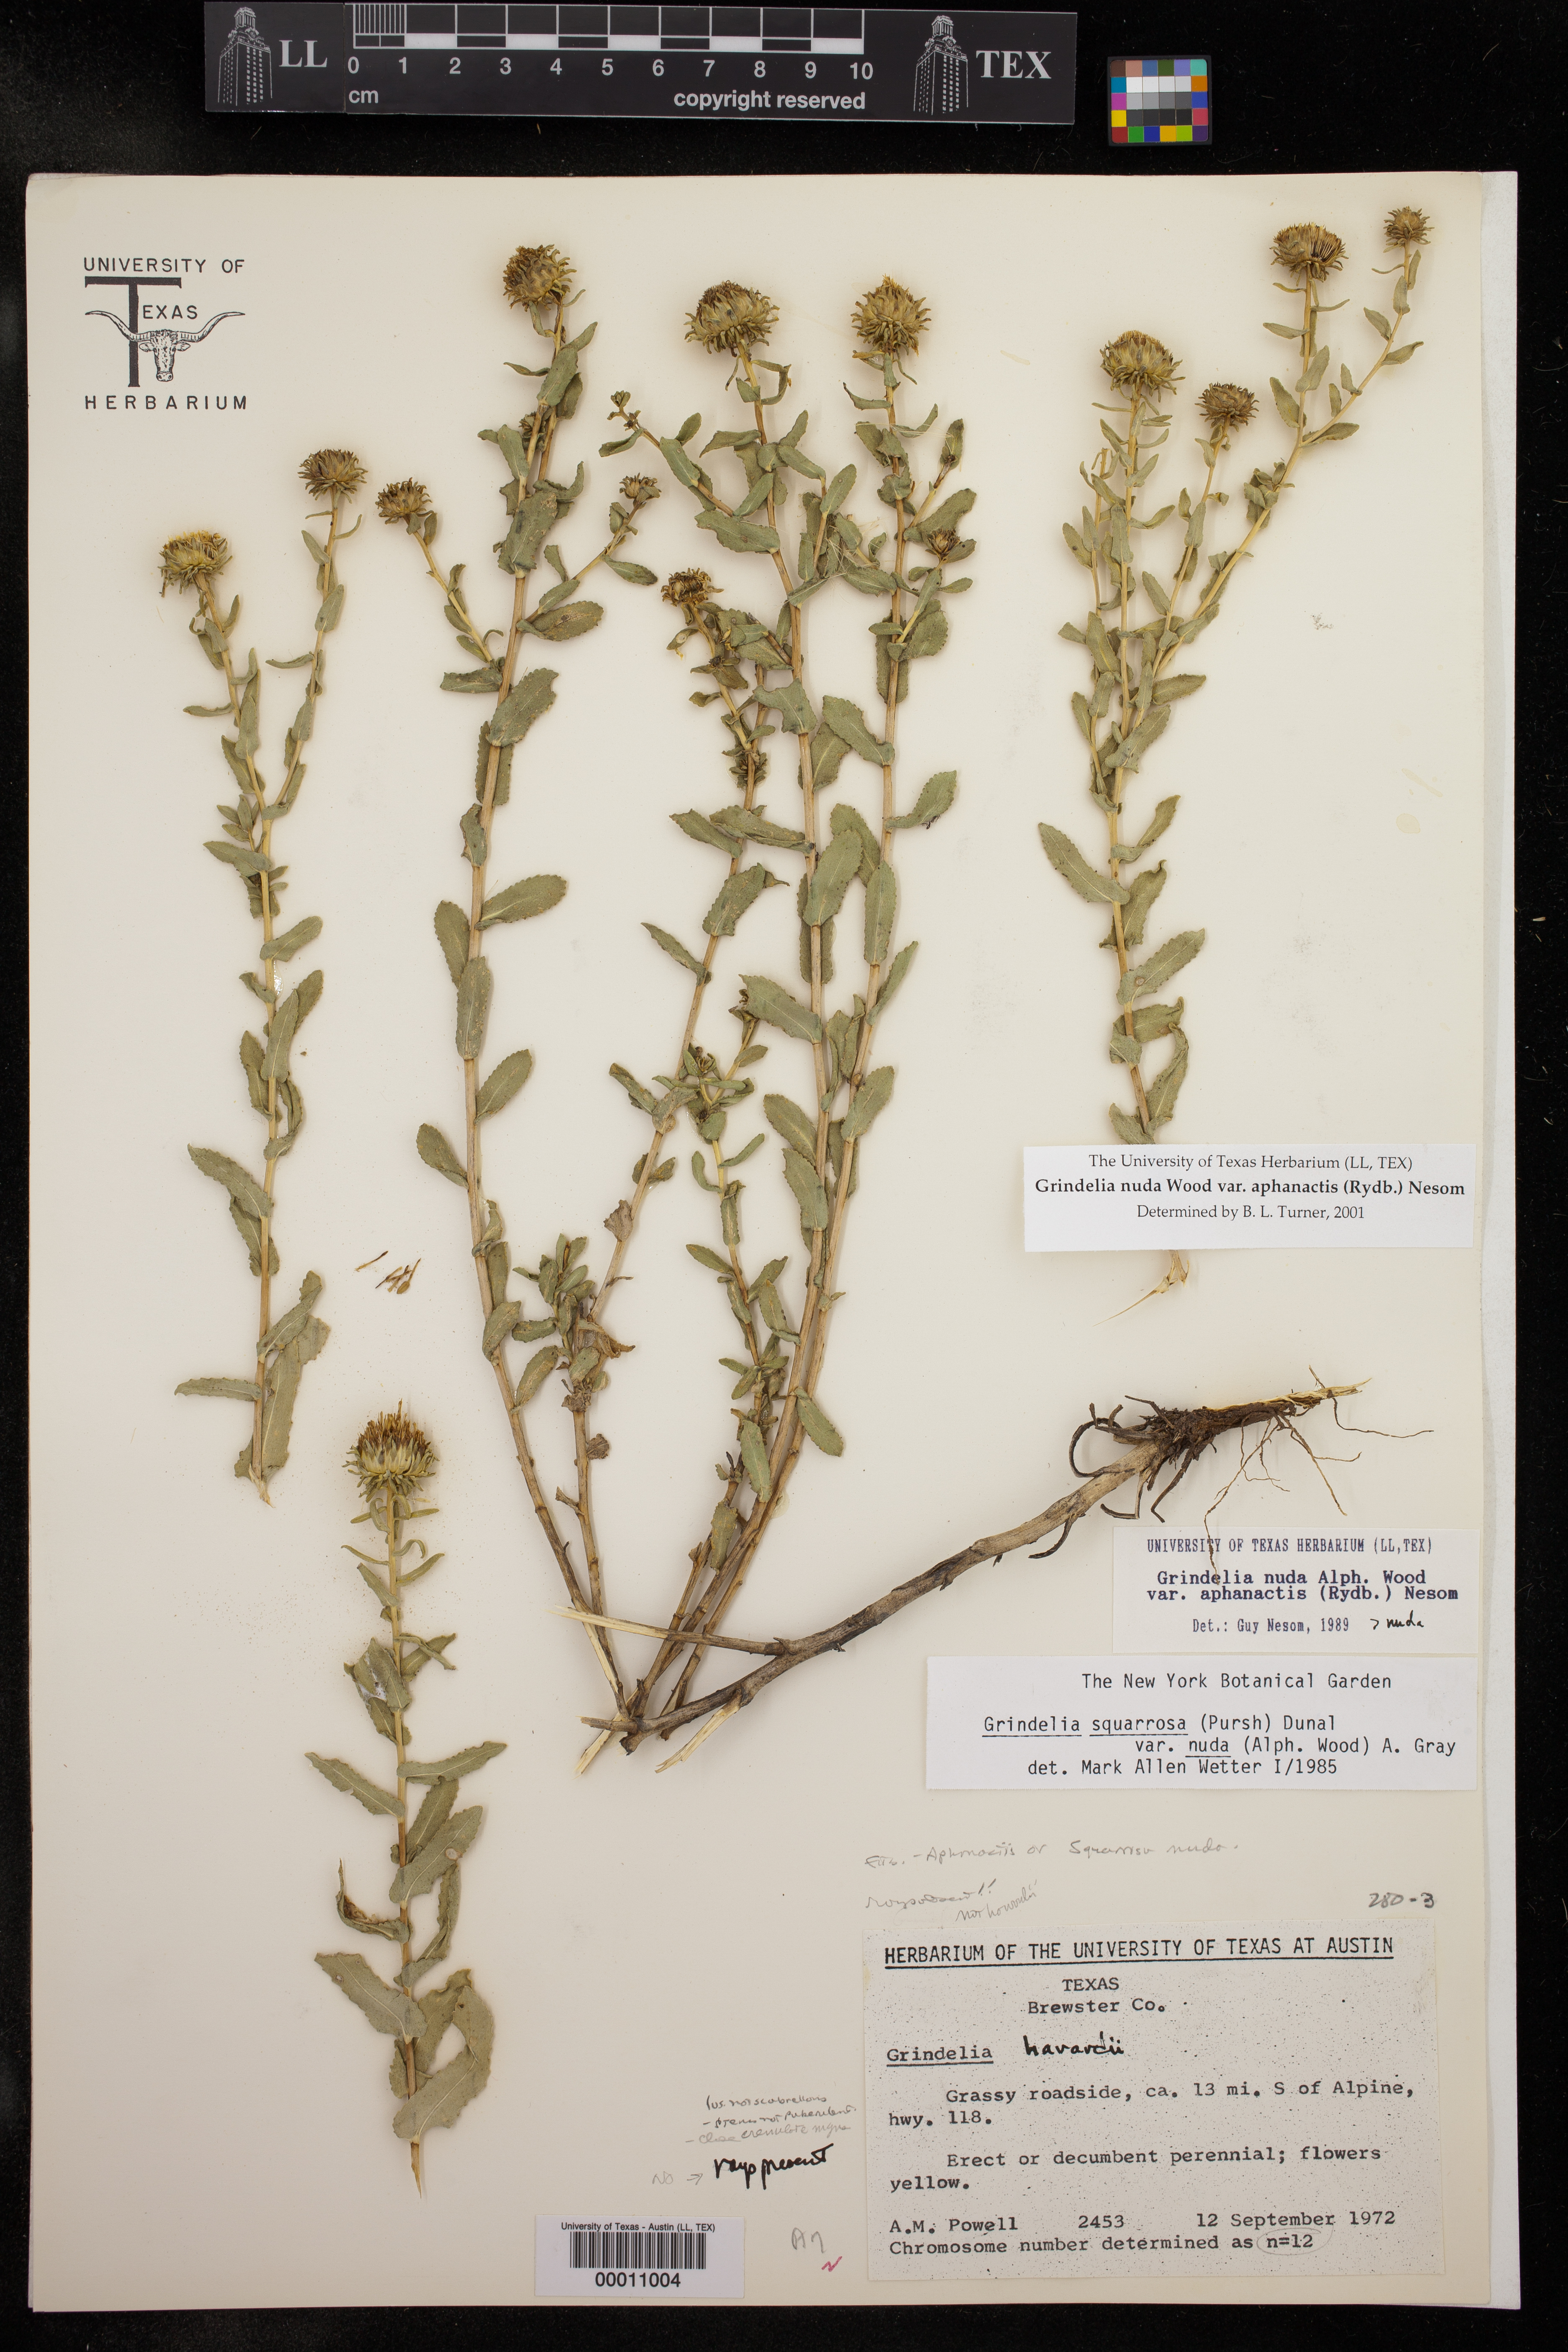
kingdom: Plantae
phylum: Tracheophyta
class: Magnoliopsida
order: Asterales
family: Asteraceae
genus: Grindelia
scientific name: Grindelia nuda
